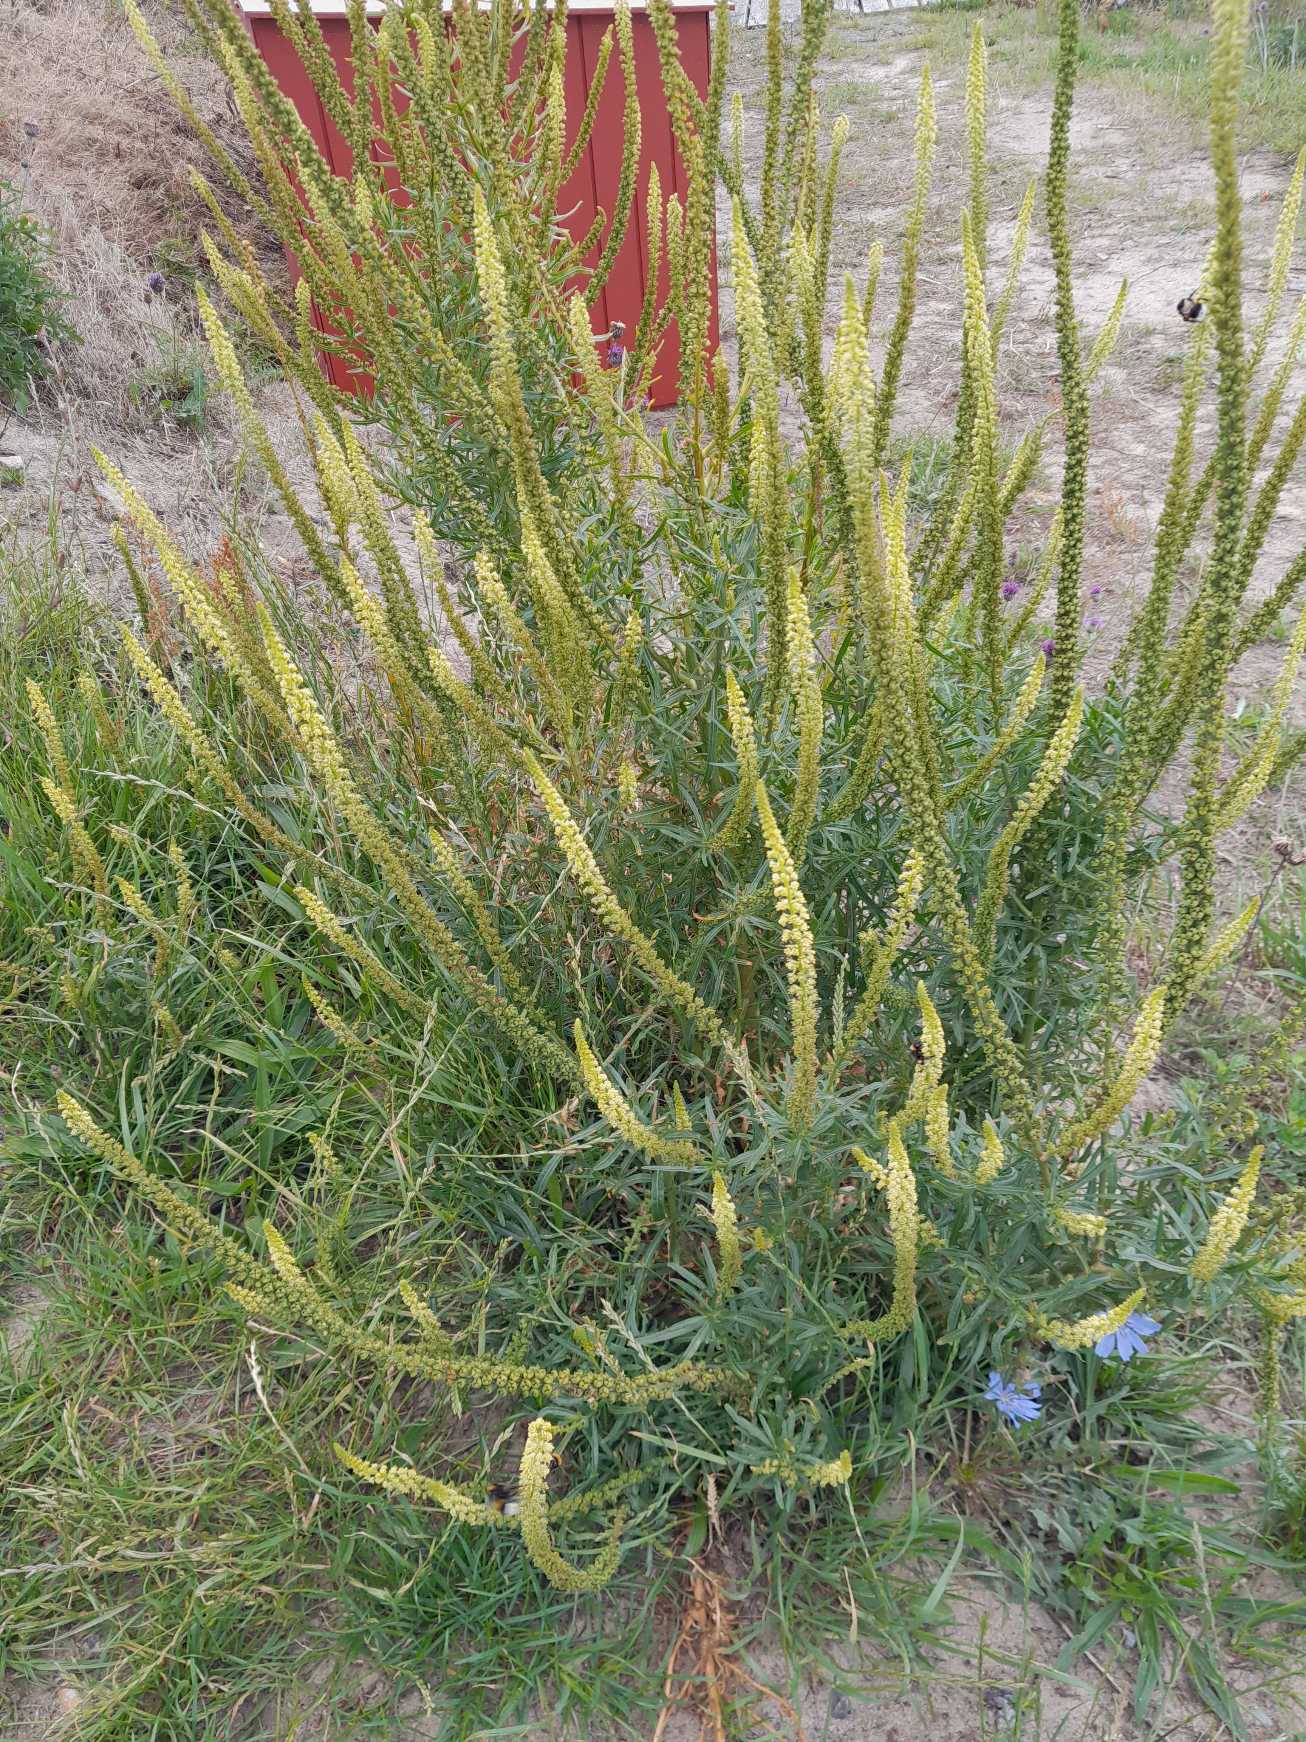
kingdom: Plantae
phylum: Tracheophyta
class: Magnoliopsida
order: Brassicales
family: Resedaceae
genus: Reseda
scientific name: Reseda luteola
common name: Farve-reseda
